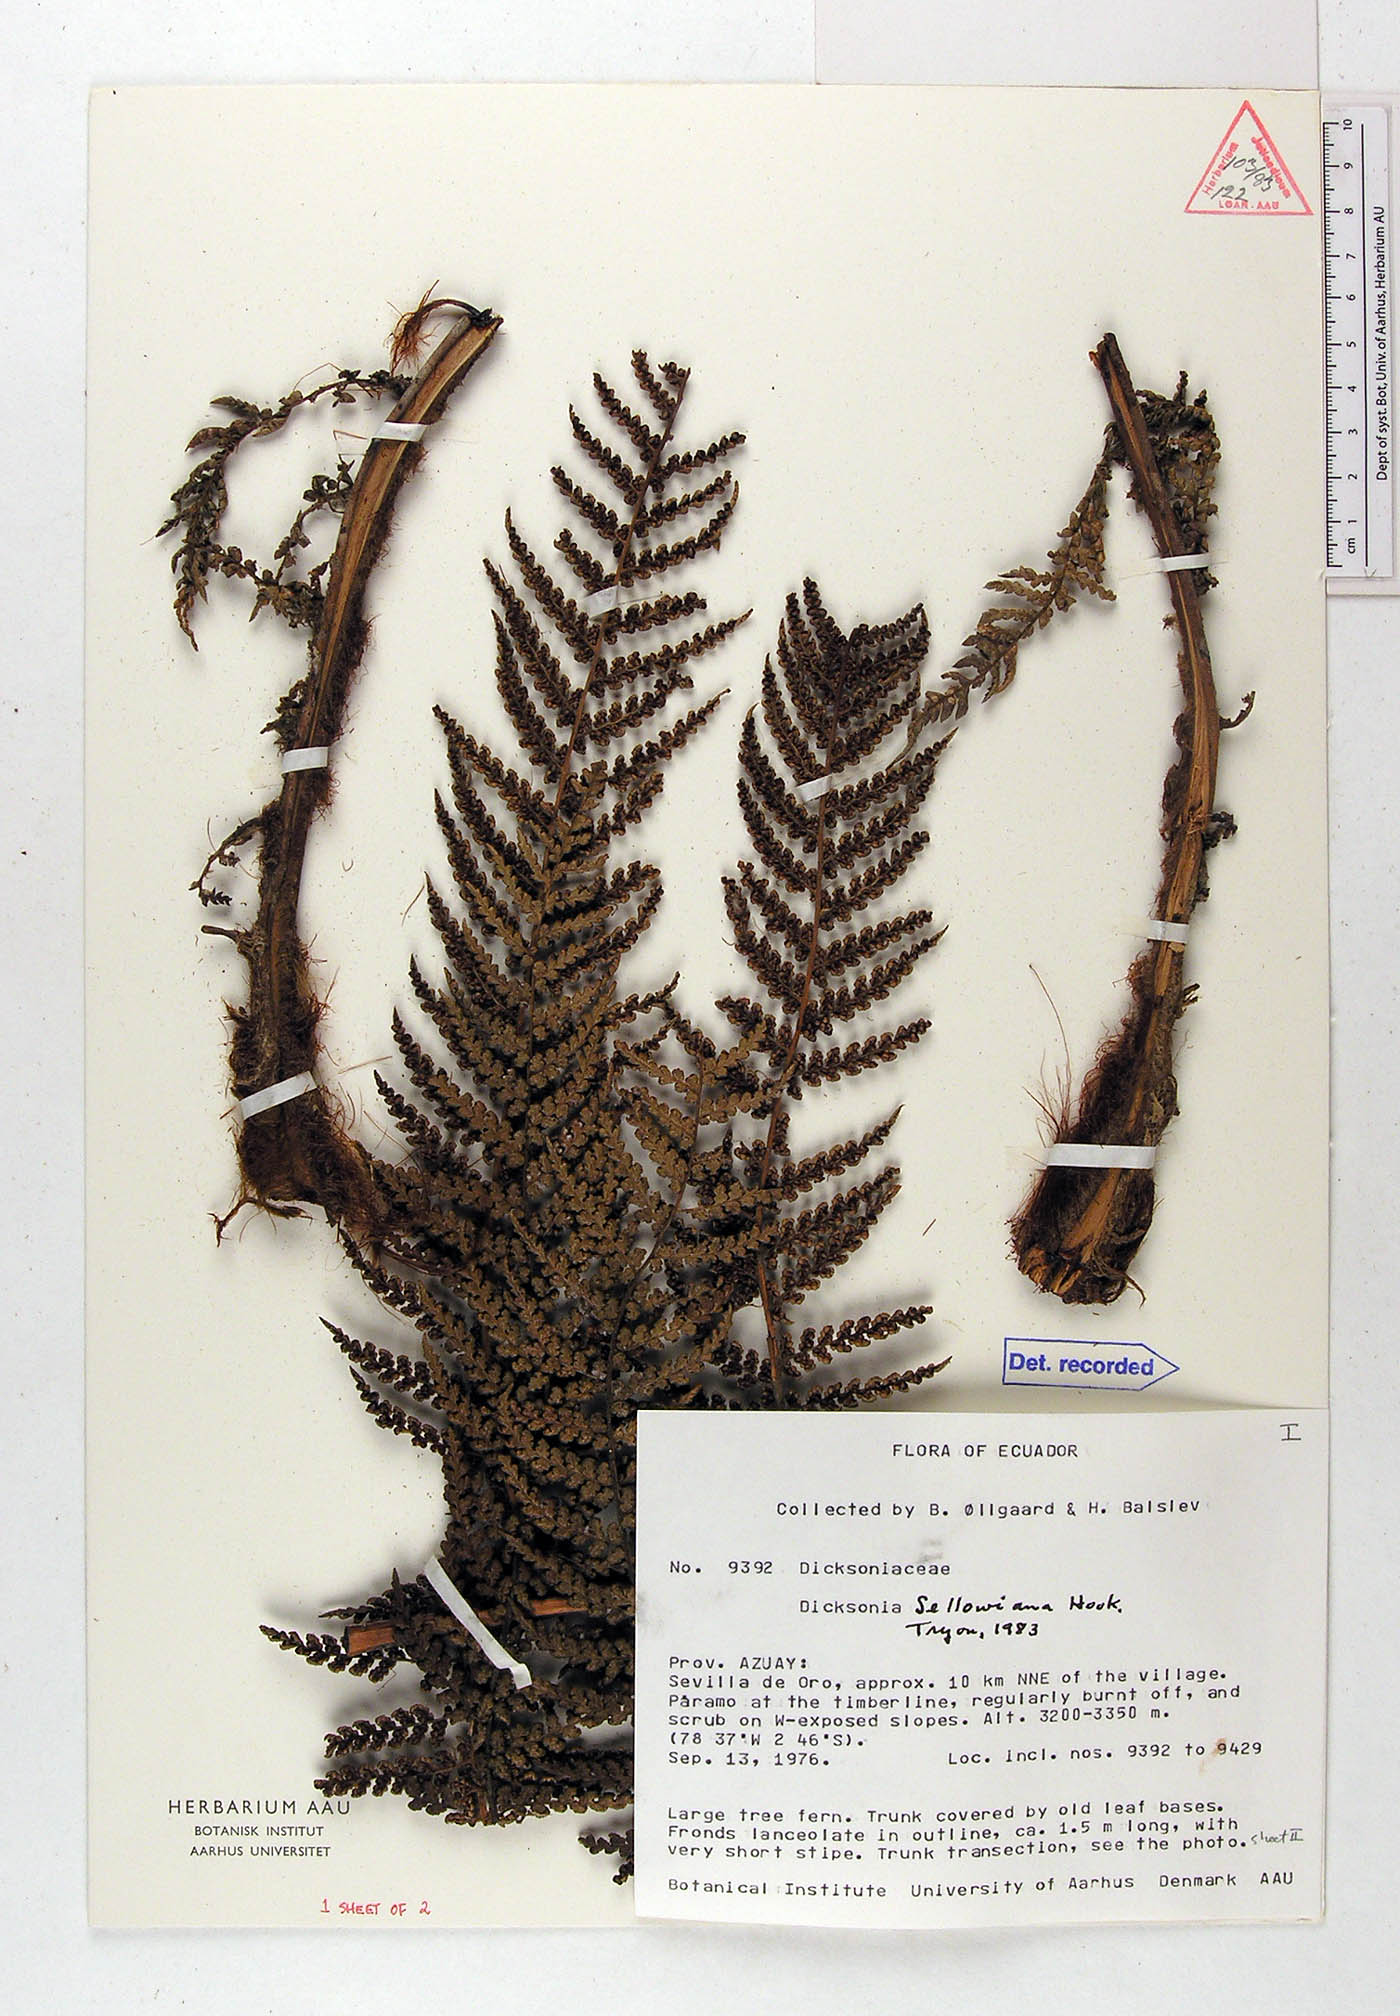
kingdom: Plantae
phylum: Tracheophyta
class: Polypodiopsida
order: Cyatheales
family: Dicksoniaceae
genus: Dicksonia
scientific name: Dicksonia sellowiana
